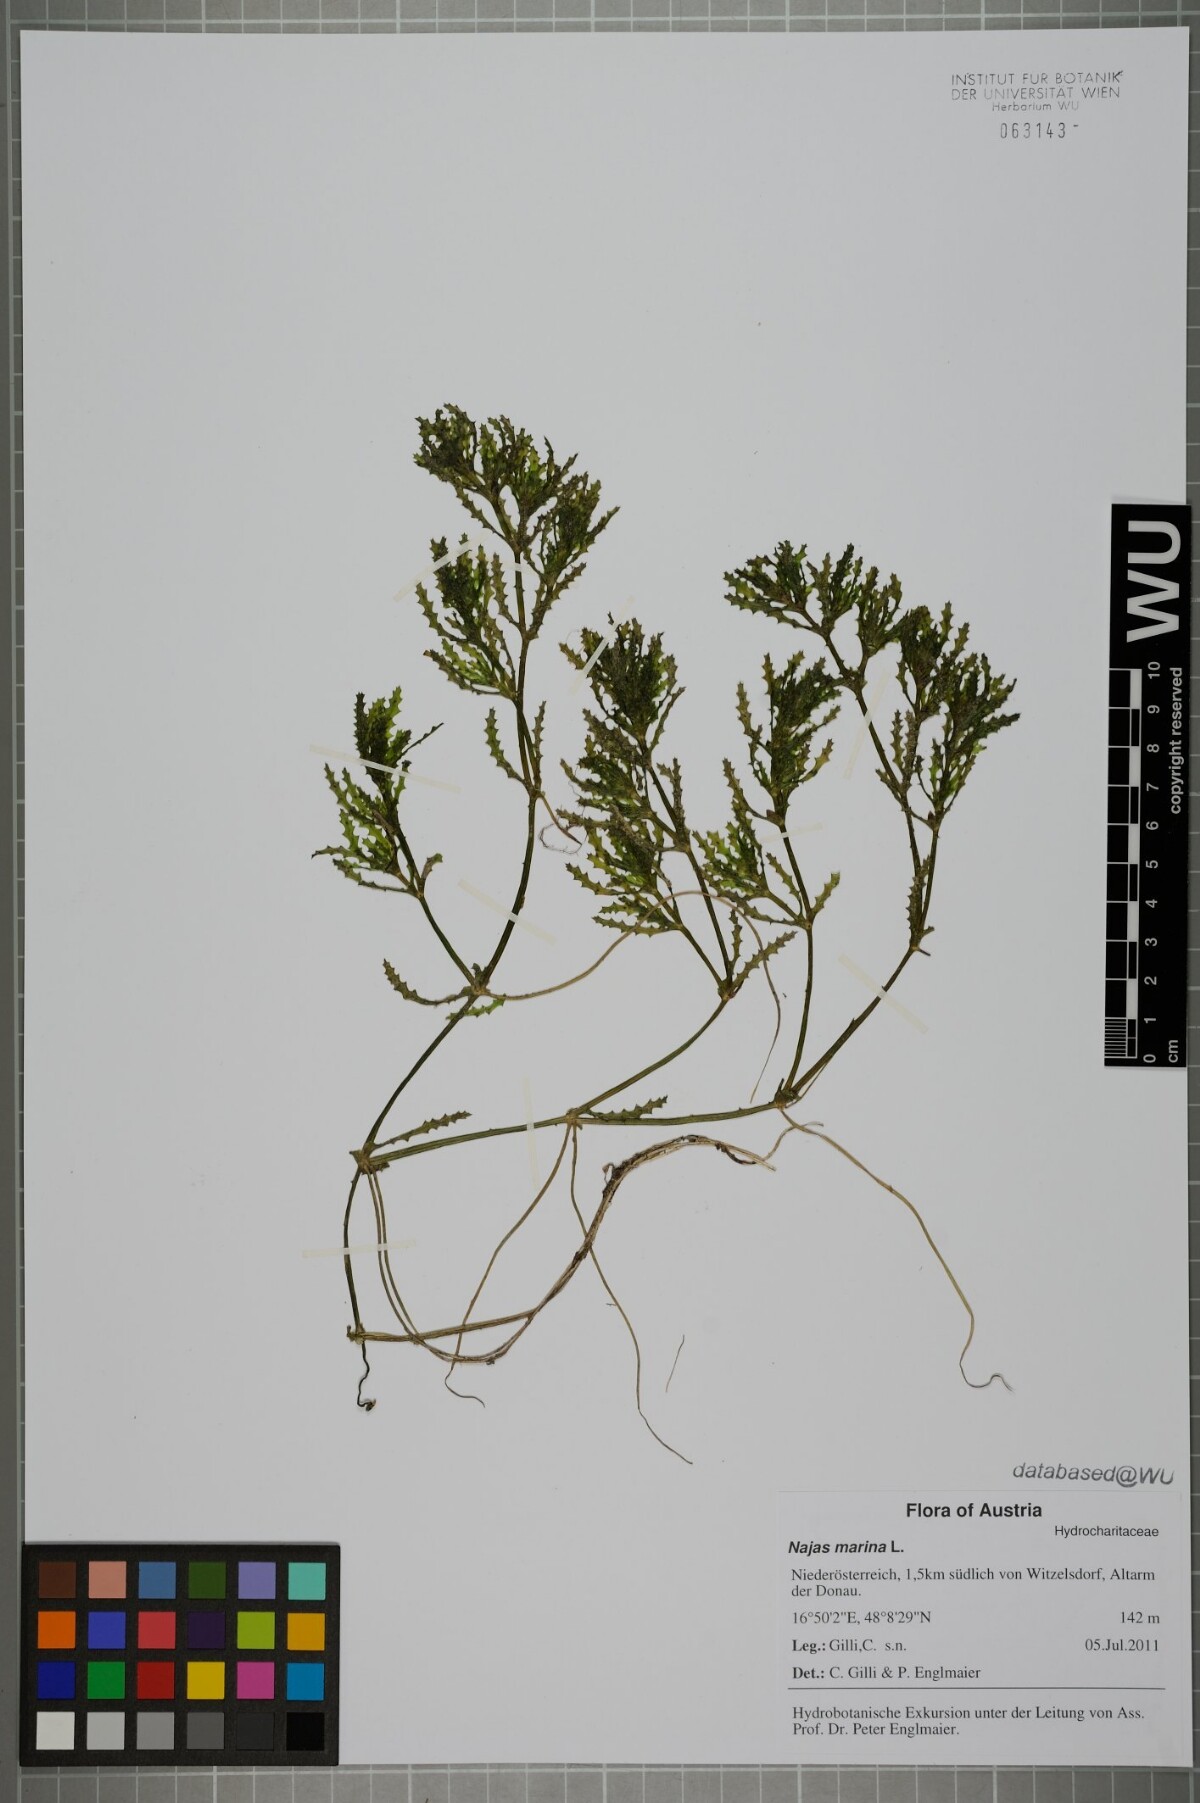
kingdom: Plantae
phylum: Tracheophyta
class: Liliopsida
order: Alismatales
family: Hydrocharitaceae
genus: Najas
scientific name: Najas marina
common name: Holly-leaved naiad
